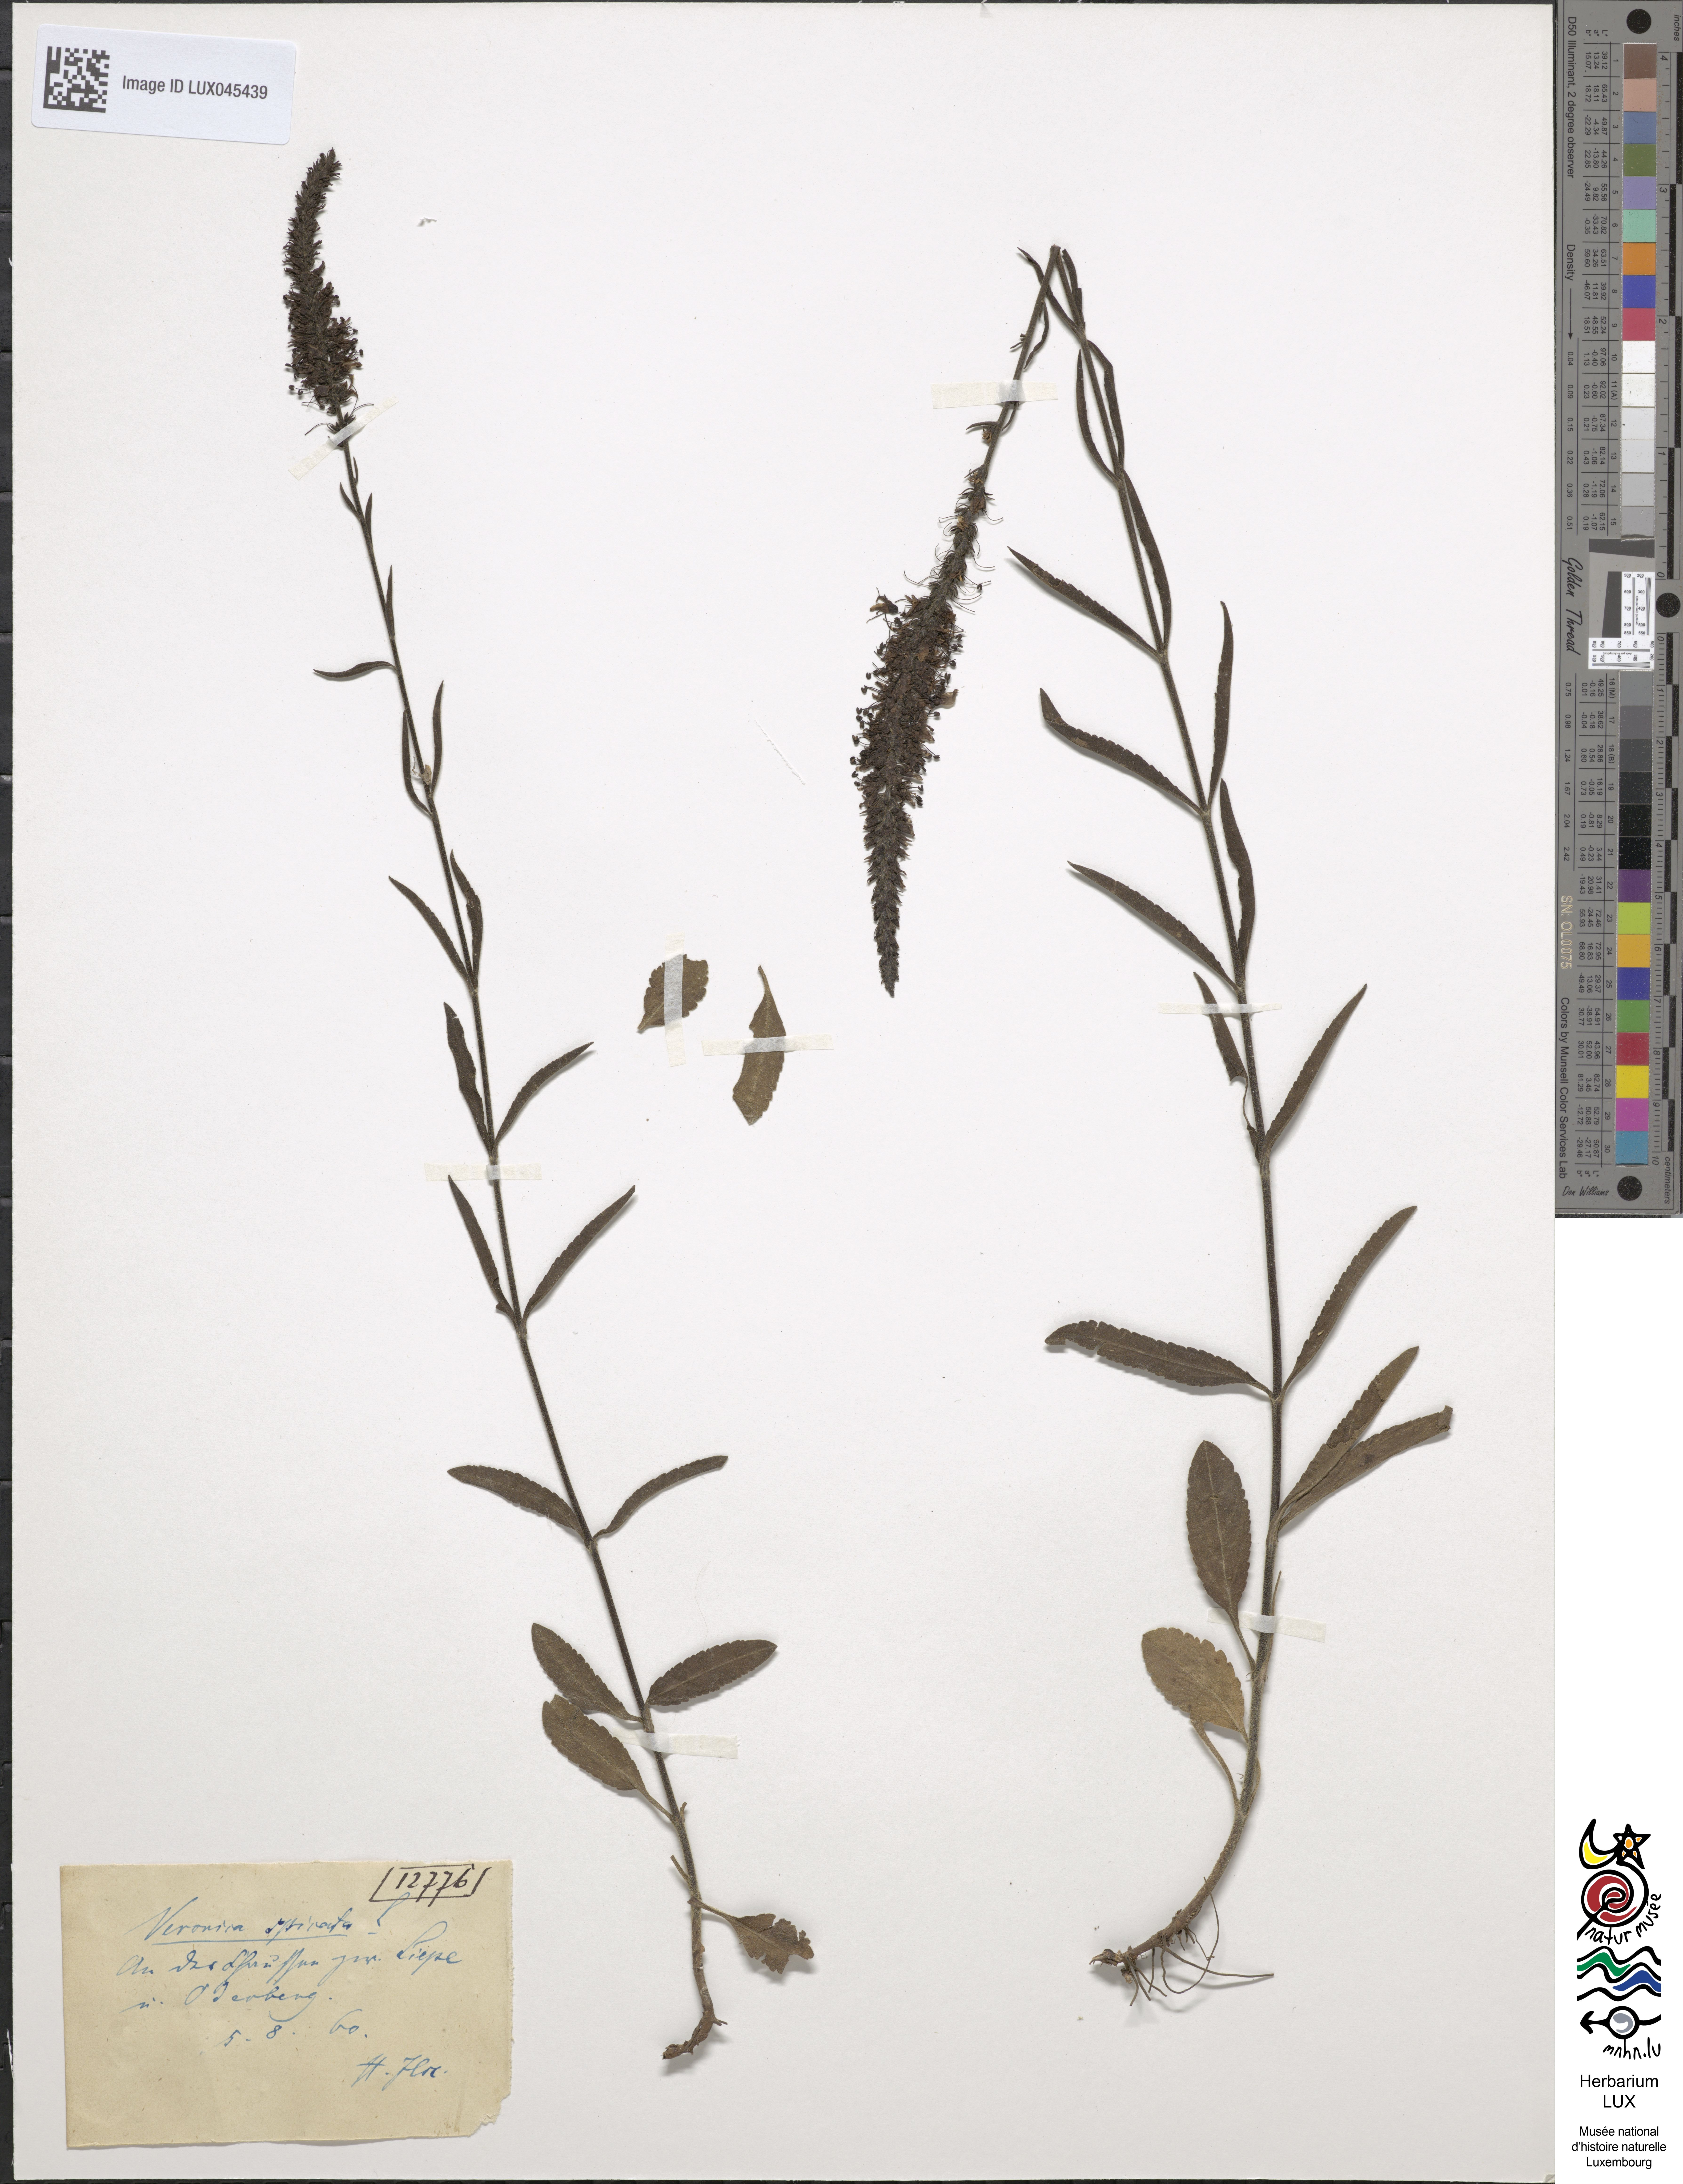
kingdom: Plantae
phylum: Tracheophyta
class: Magnoliopsida
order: Lamiales
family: Plantaginaceae
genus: Veronica
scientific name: Veronica spicata
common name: Spiked speedwell
